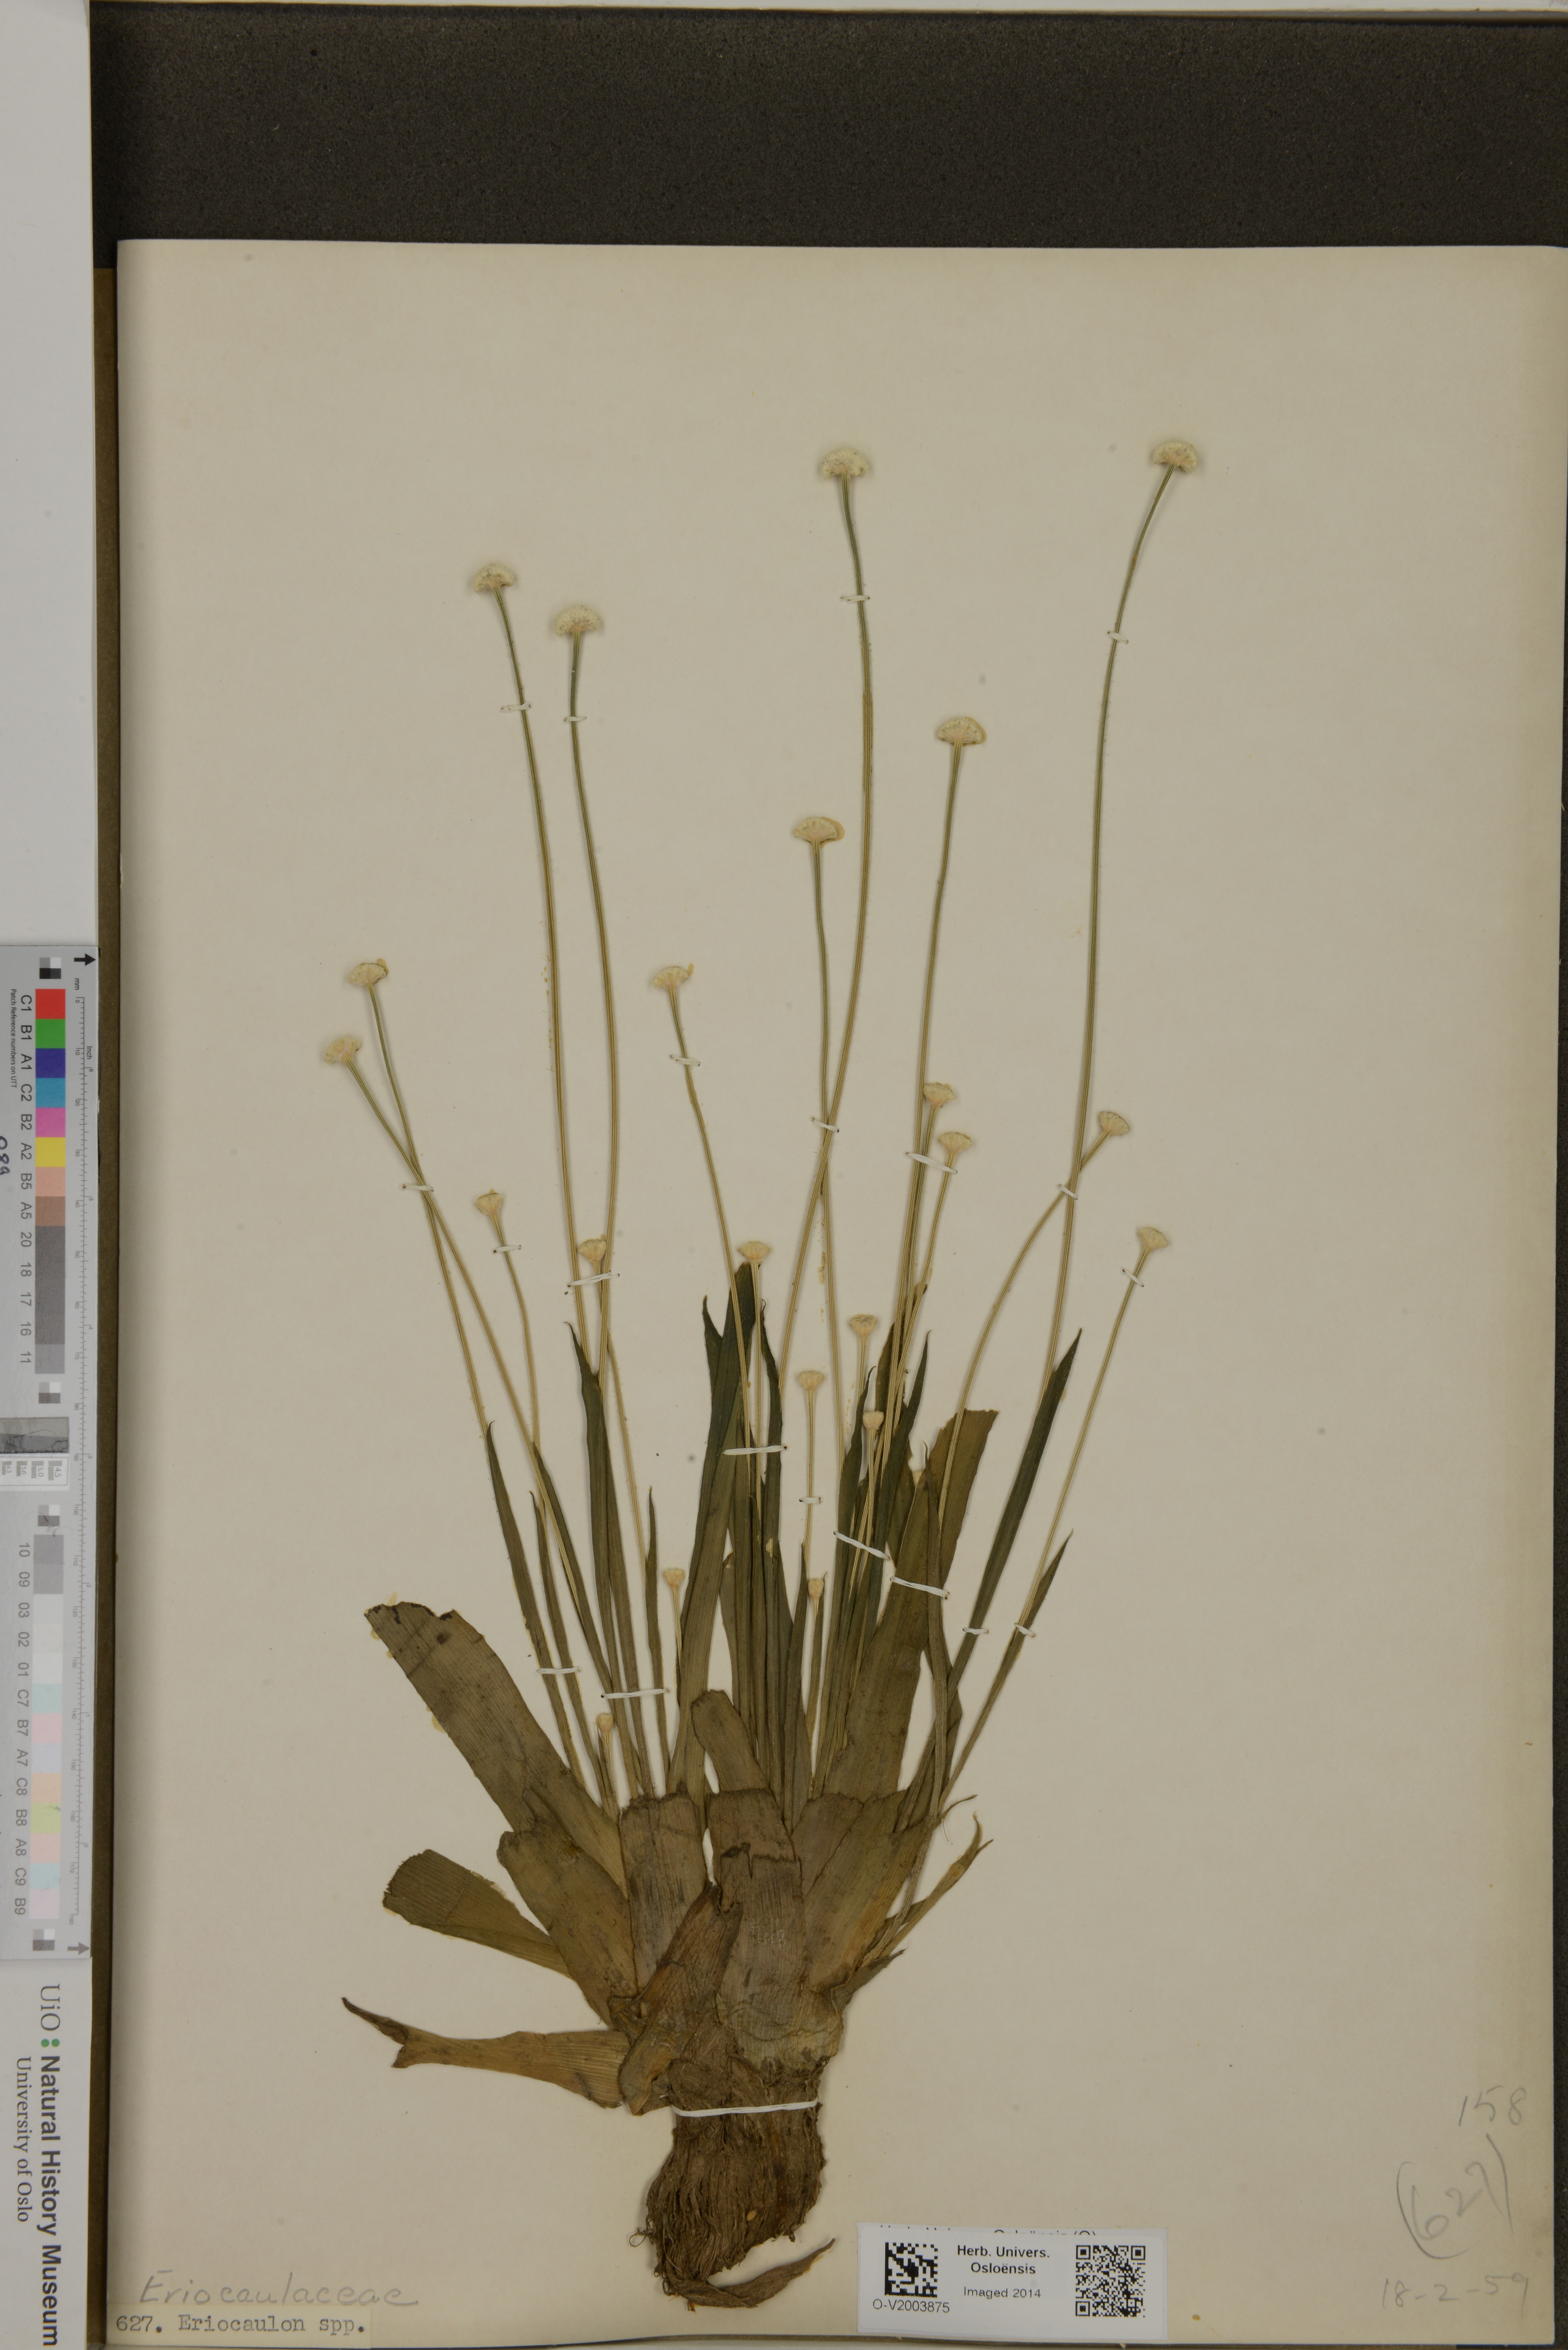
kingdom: Plantae
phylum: Tracheophyta
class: Liliopsida
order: Poales
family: Eriocaulaceae
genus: Eriocaulon
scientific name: Eriocaulon
